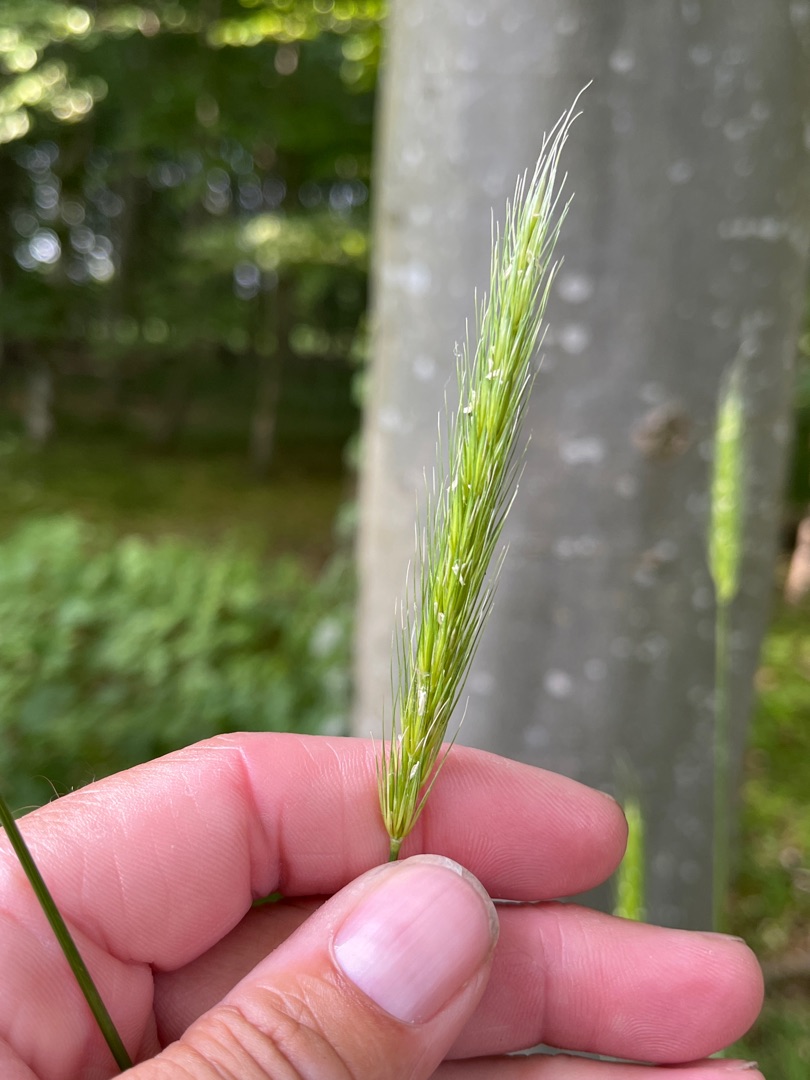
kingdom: Plantae
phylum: Tracheophyta
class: Liliopsida
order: Poales
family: Poaceae
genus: Hordelymus
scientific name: Hordelymus europaeus
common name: Skovbyg
